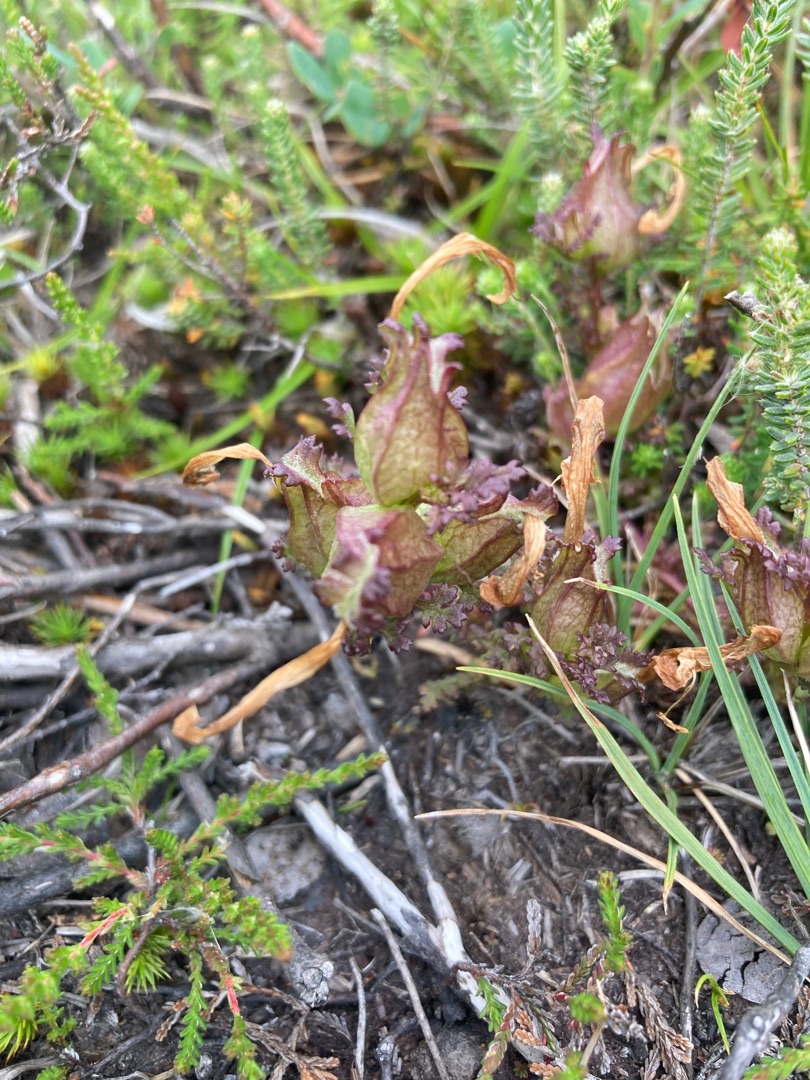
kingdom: Plantae
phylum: Tracheophyta
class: Magnoliopsida
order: Lamiales
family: Orobanchaceae
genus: Pedicularis
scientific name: Pedicularis palustris
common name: Eng-troldurt
